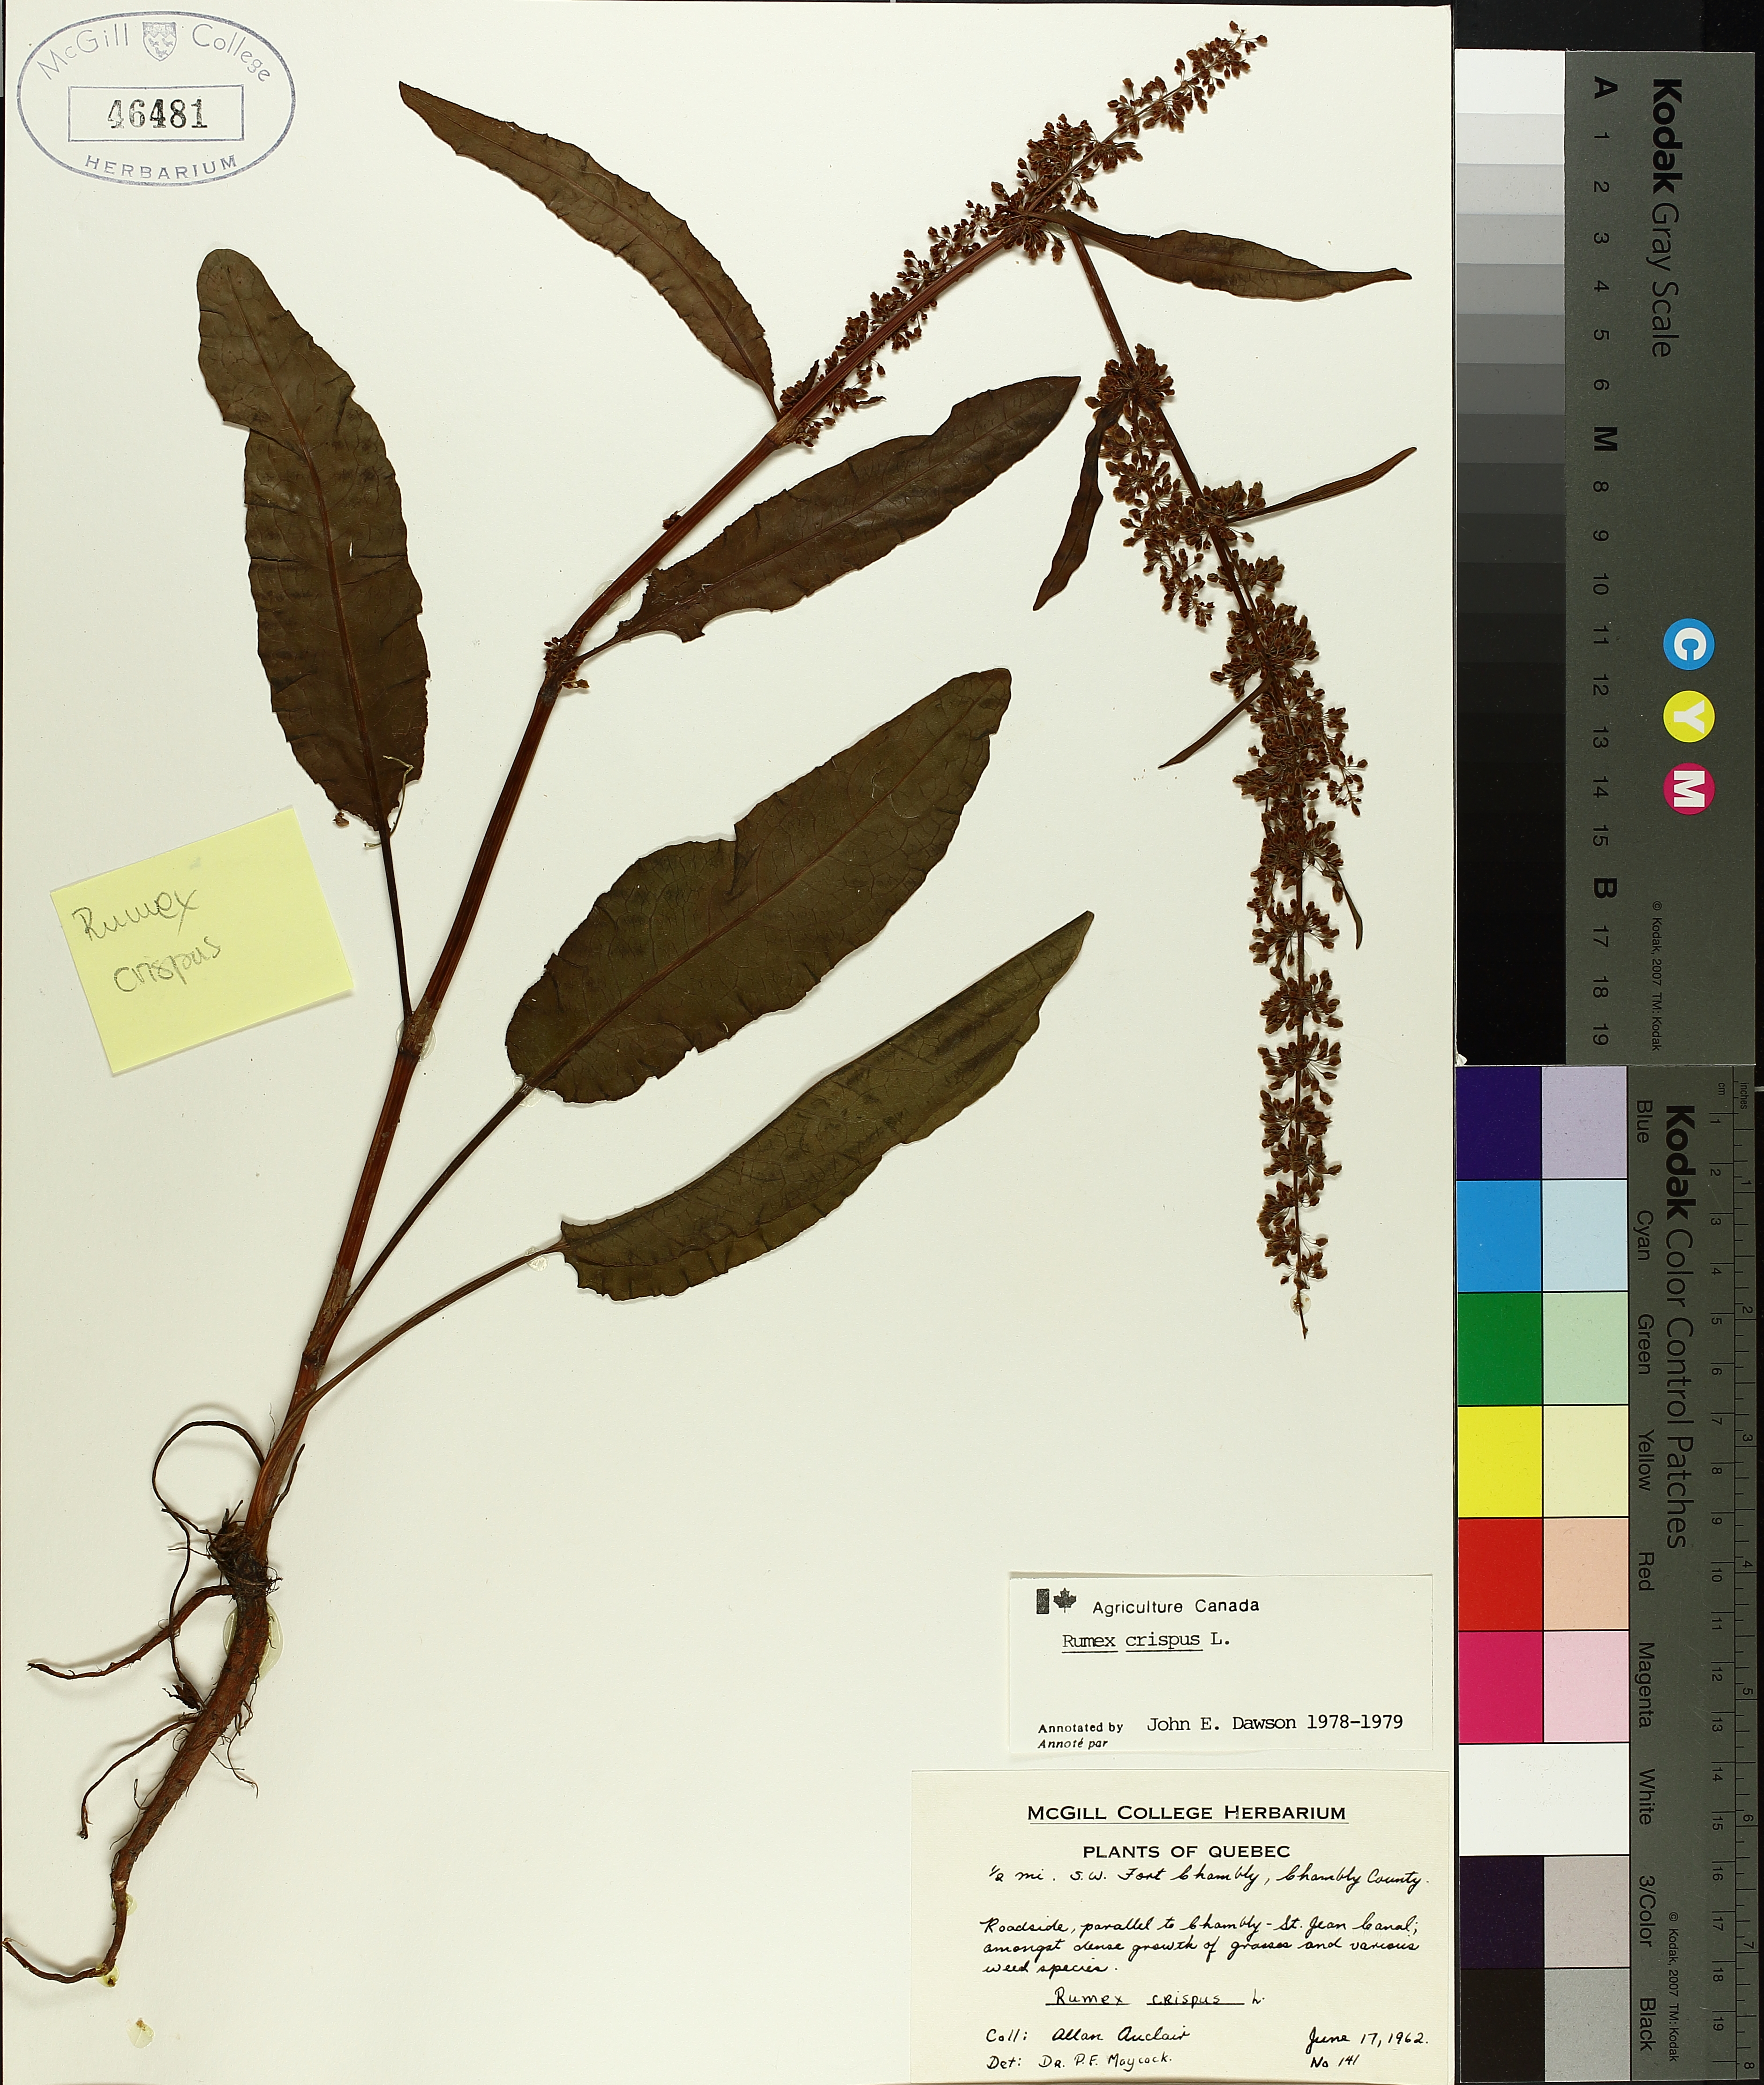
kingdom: Plantae
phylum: Tracheophyta
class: Magnoliopsida
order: Caryophyllales
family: Polygonaceae
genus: Rumex
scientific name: Rumex crispus
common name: Curled dock
